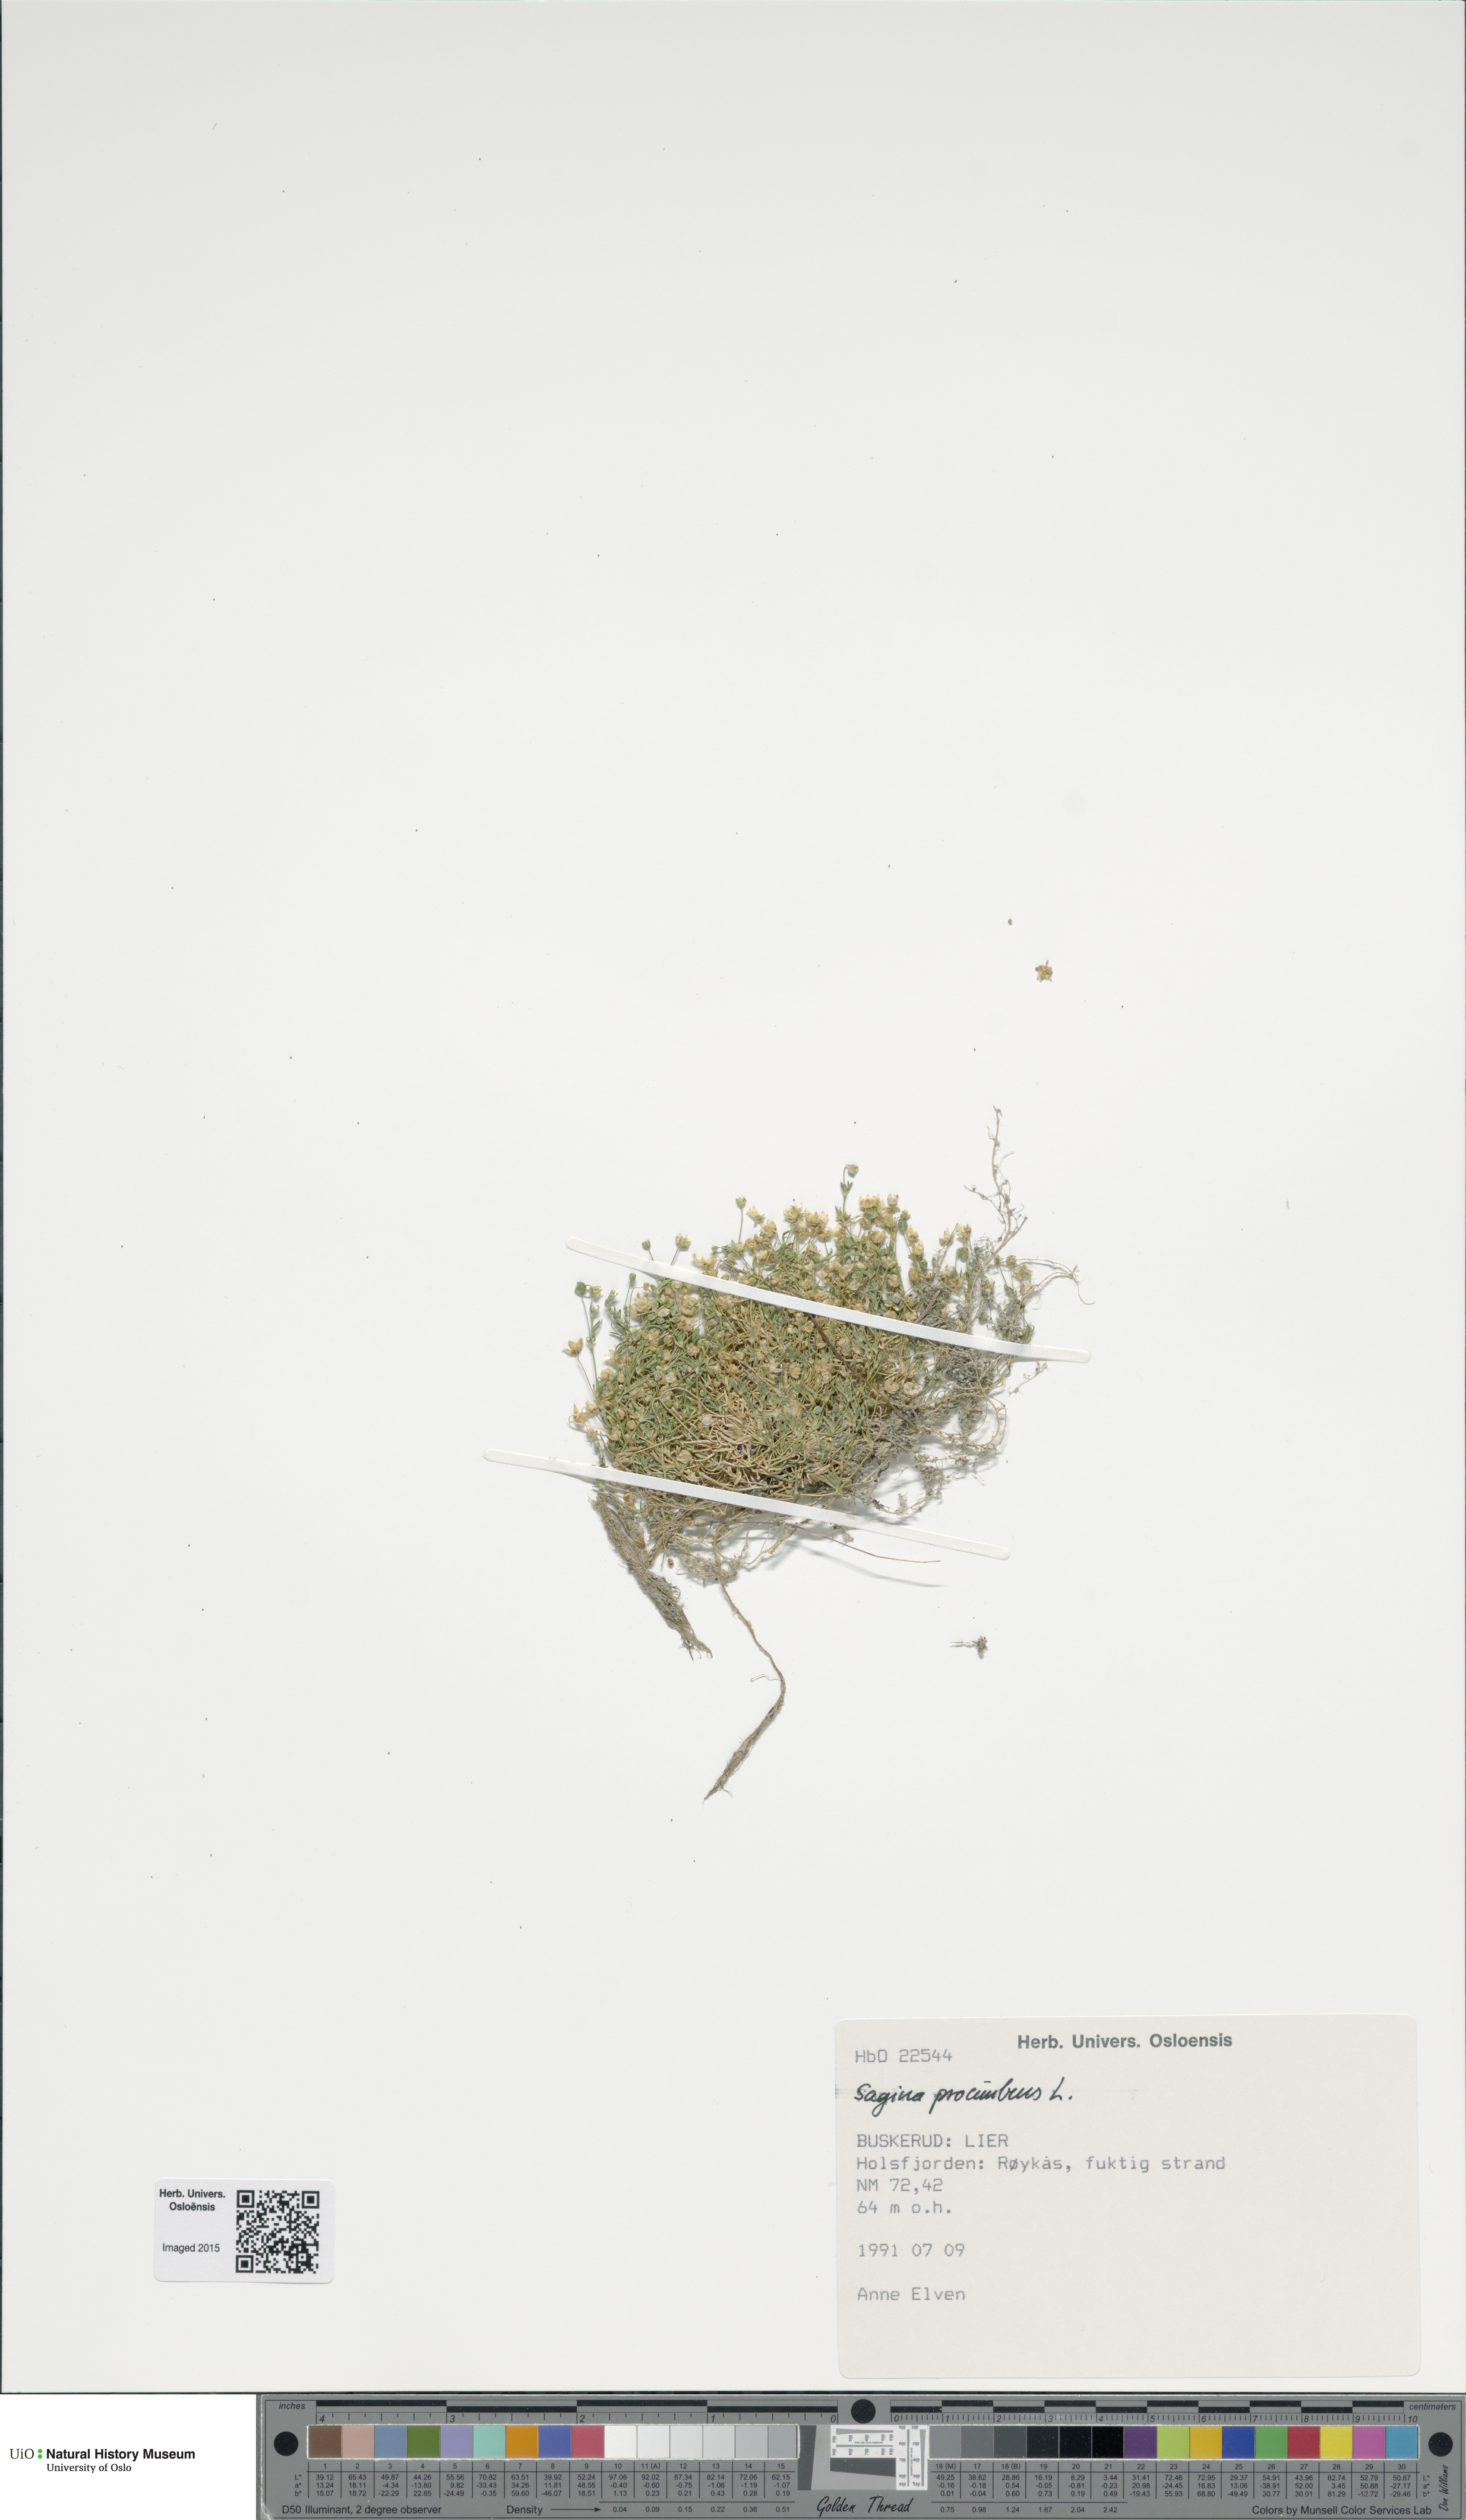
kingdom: Plantae
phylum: Tracheophyta
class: Magnoliopsida
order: Caryophyllales
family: Caryophyllaceae
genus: Sagina
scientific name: Sagina procumbens
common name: Procumbent pearlwort
